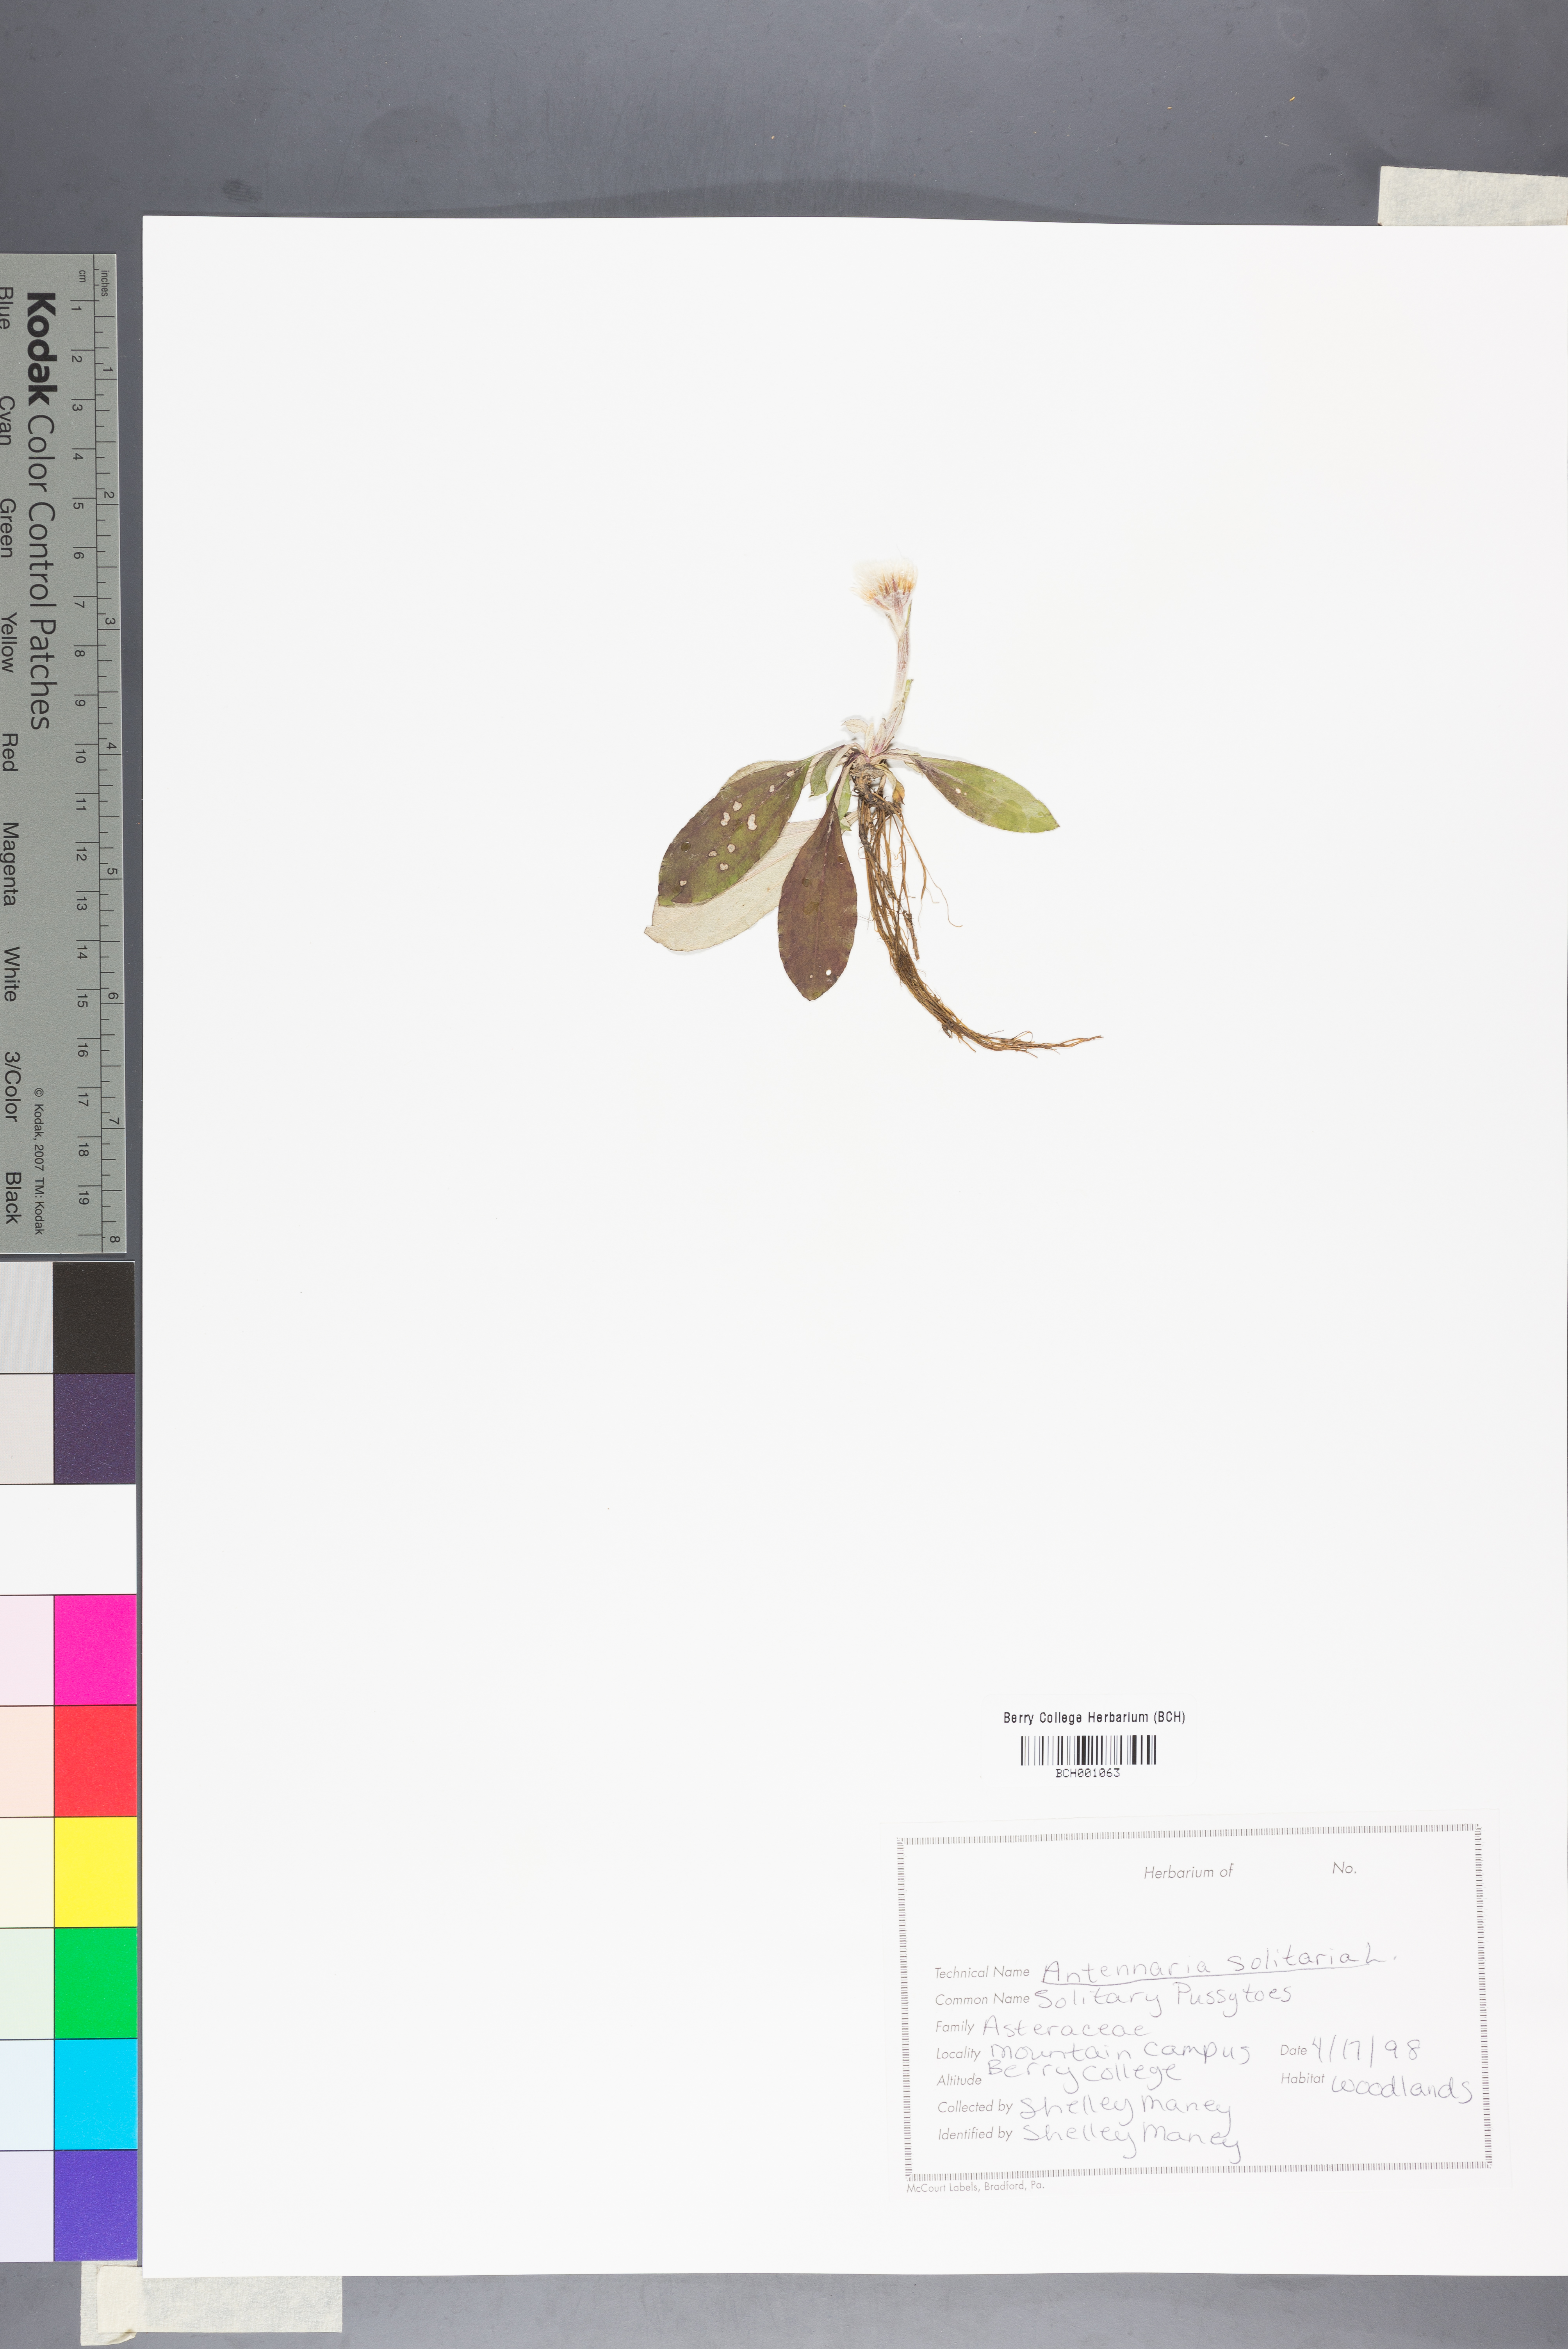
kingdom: Plantae
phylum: Tracheophyta
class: Magnoliopsida
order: Asterales
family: Asteraceae
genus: Antennaria
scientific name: Antennaria solitaria
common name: Single-head pussytoes
